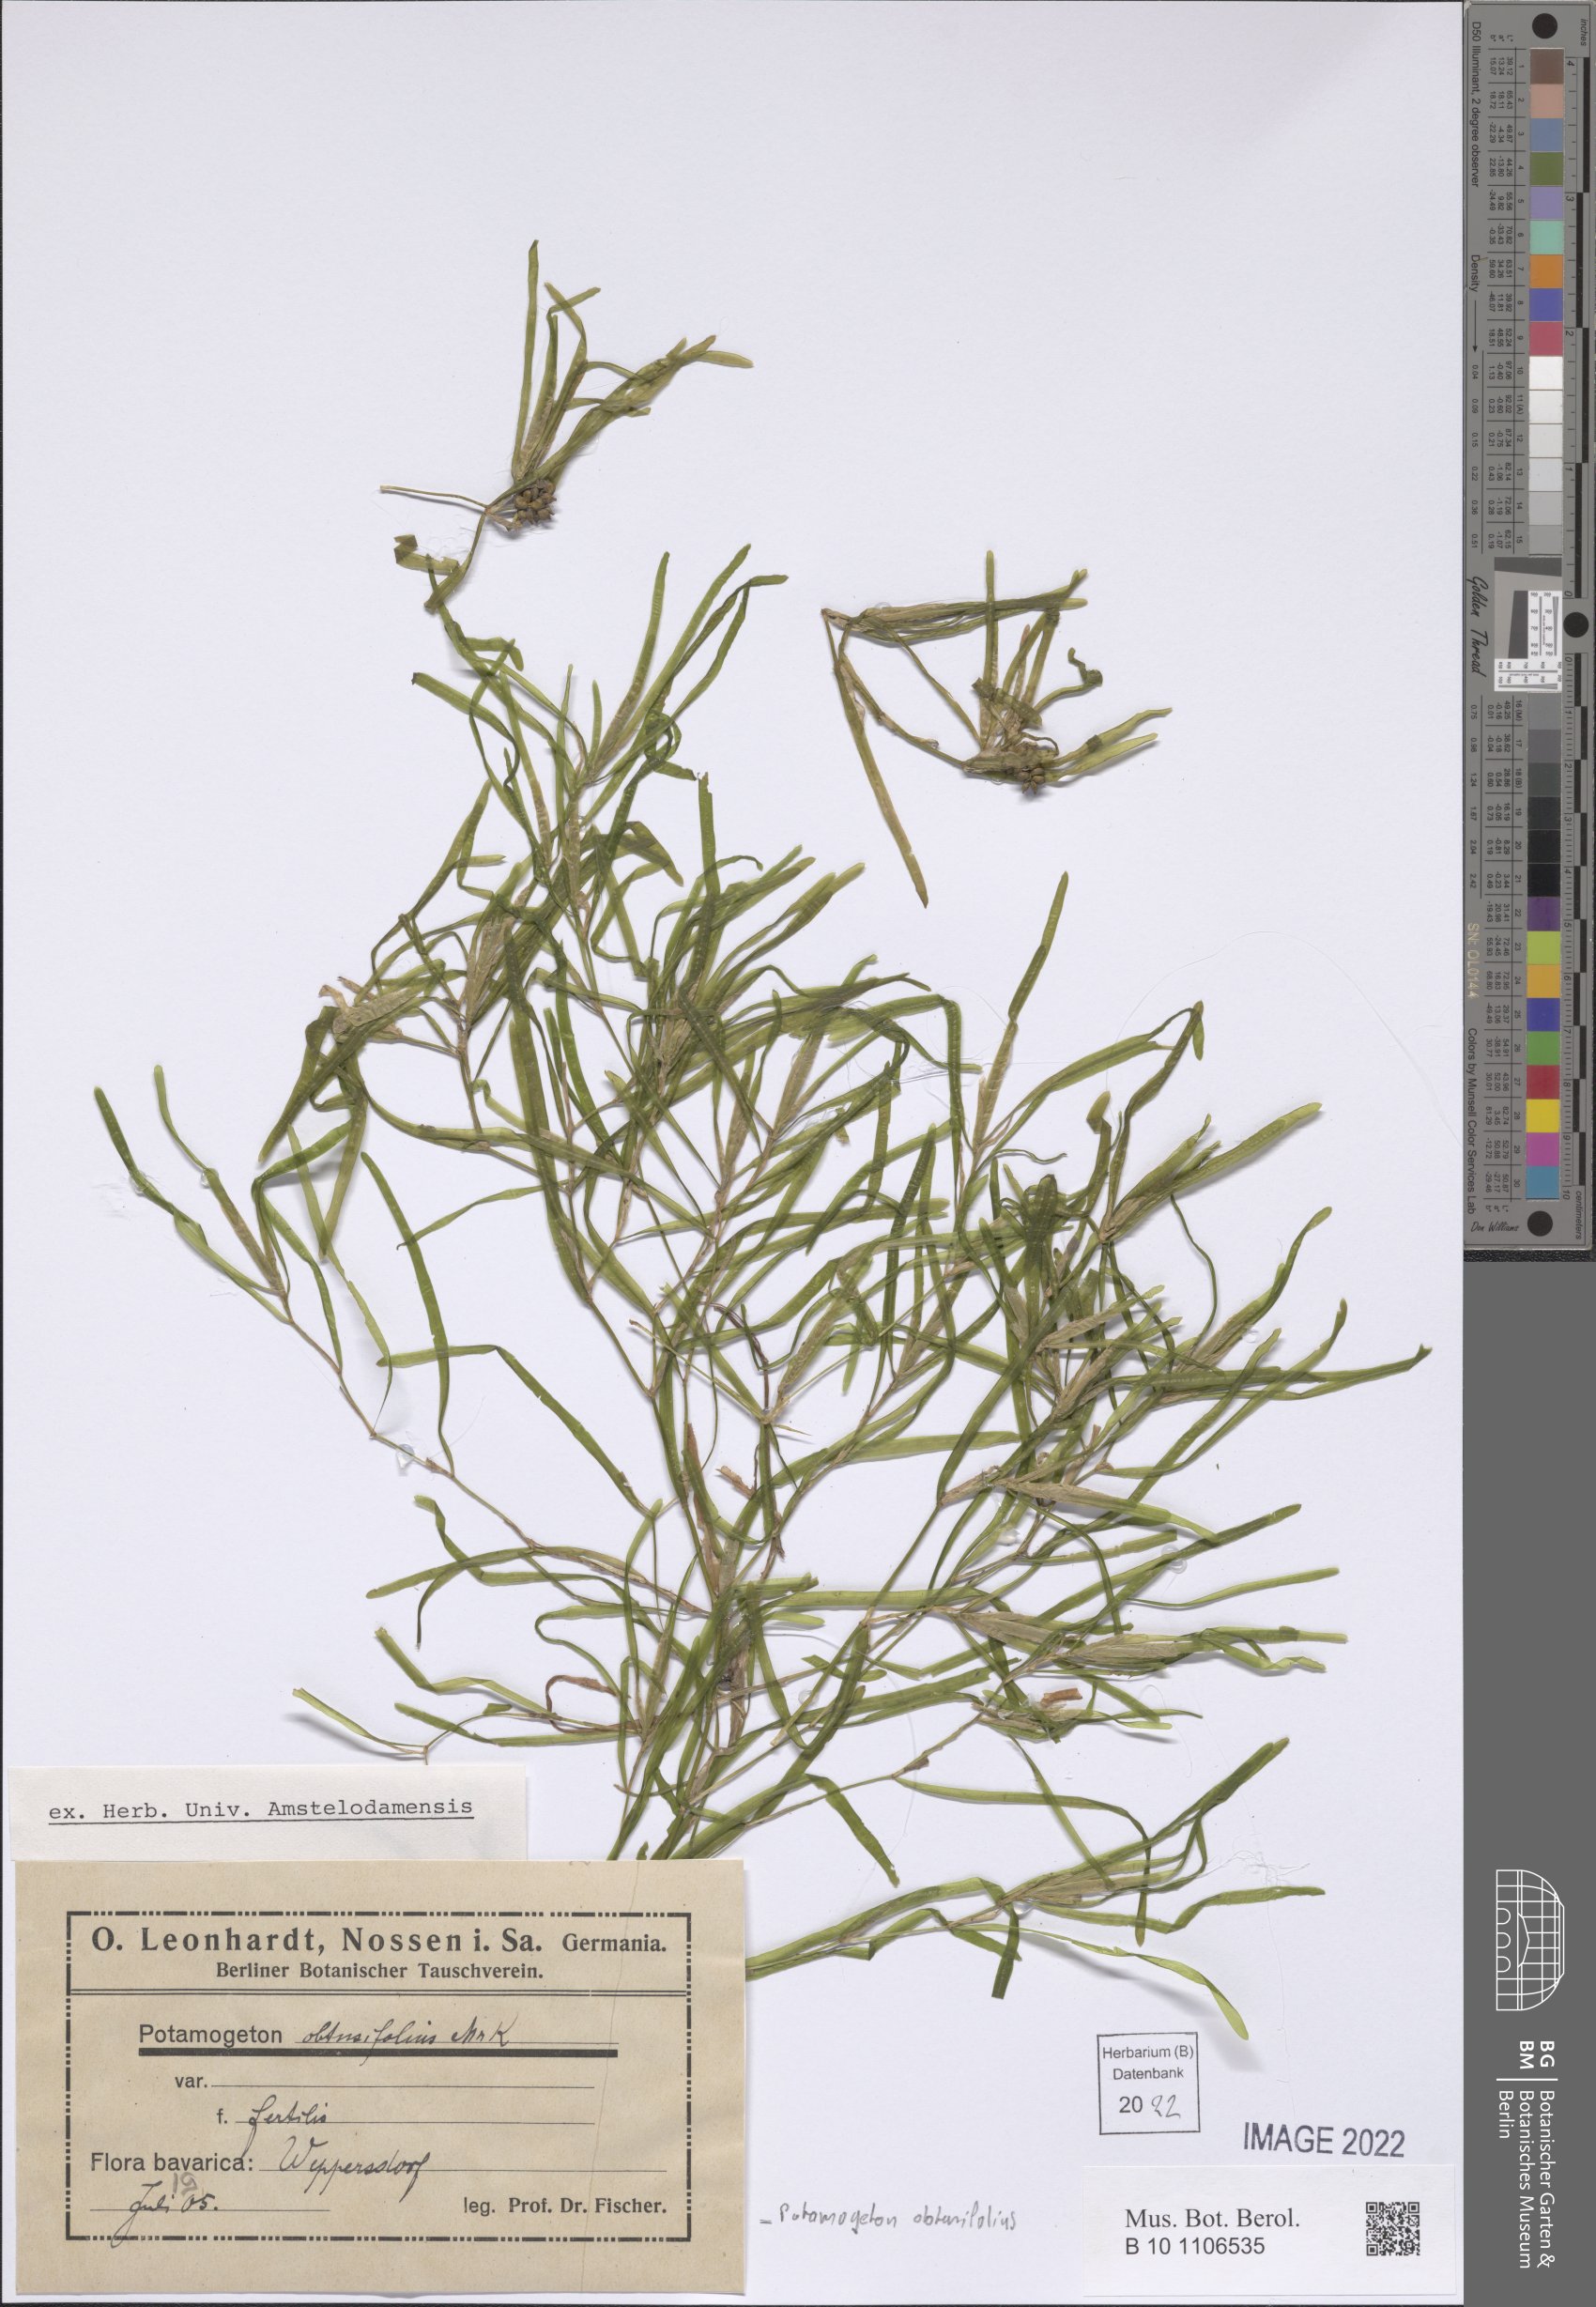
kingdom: Plantae
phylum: Tracheophyta
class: Liliopsida
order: Alismatales
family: Potamogetonaceae
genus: Potamogeton
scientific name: Potamogeton obtusifolius
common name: Blunt-leaved pondweed
